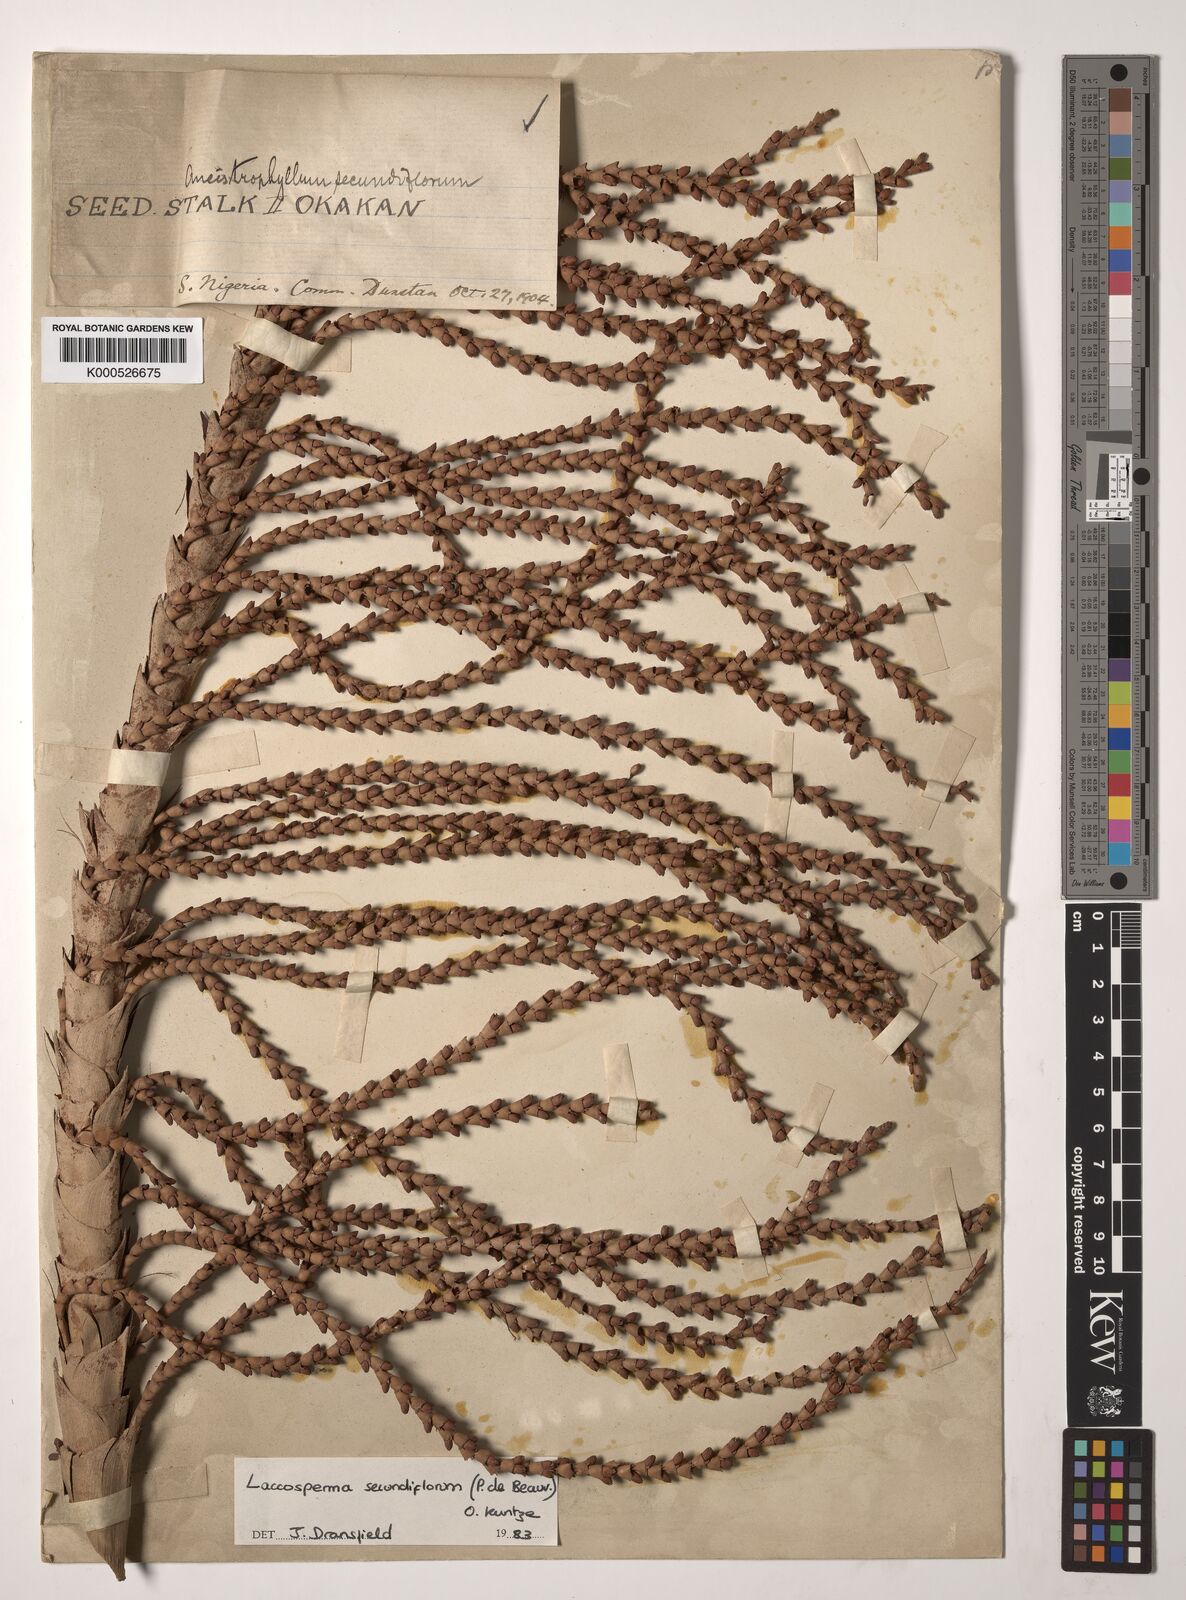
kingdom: Plantae
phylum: Tracheophyta
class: Liliopsida
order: Arecales
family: Arecaceae
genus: Laccosperma
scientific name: Laccosperma secundiflorum
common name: Rattan
